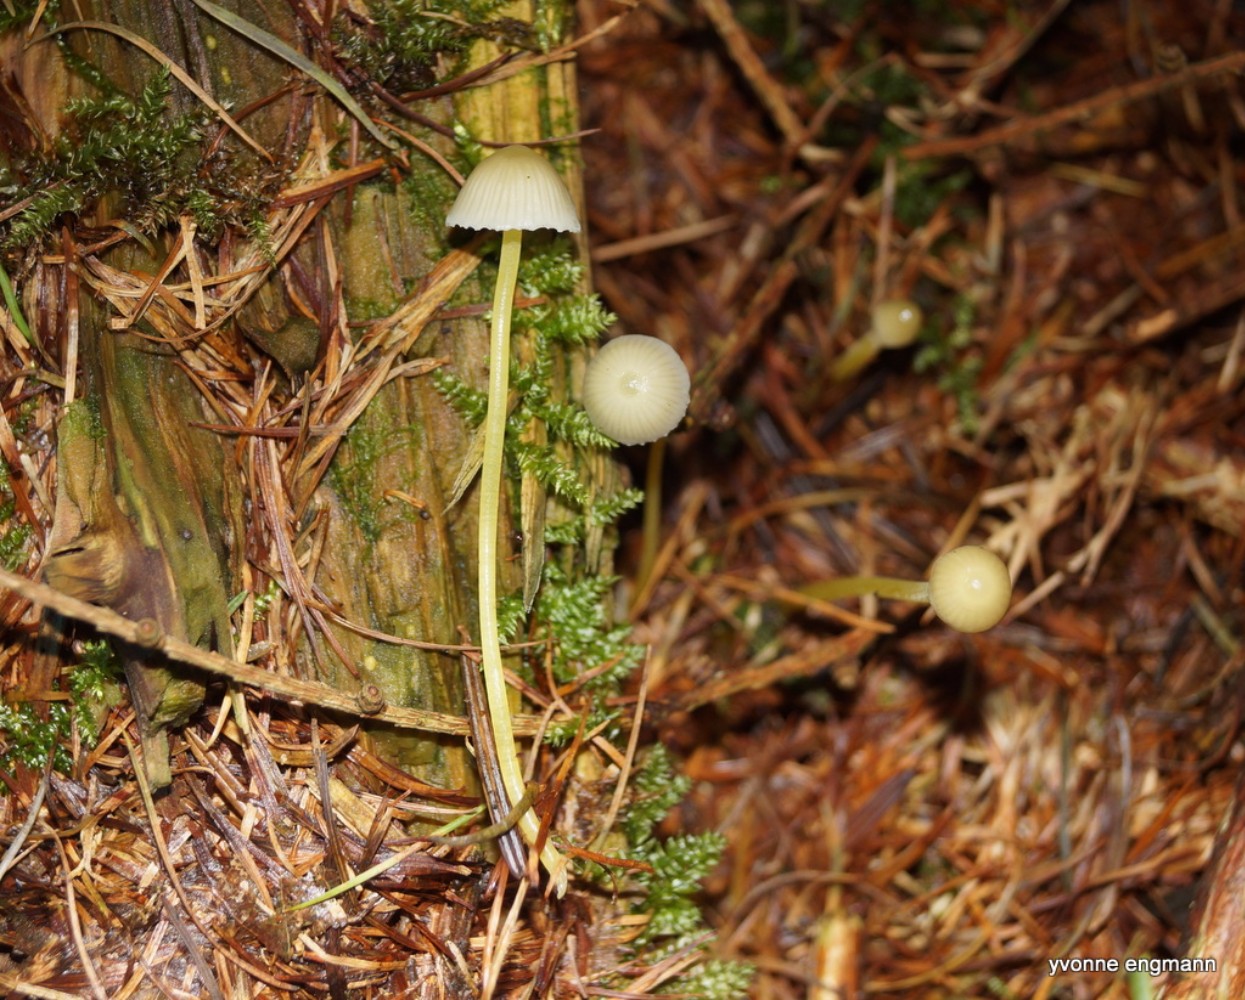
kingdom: Fungi
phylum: Basidiomycota
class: Agaricomycetes
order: Agaricales
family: Mycenaceae
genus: Mycena
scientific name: Mycena epipterygia
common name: gulstokket huesvamp
